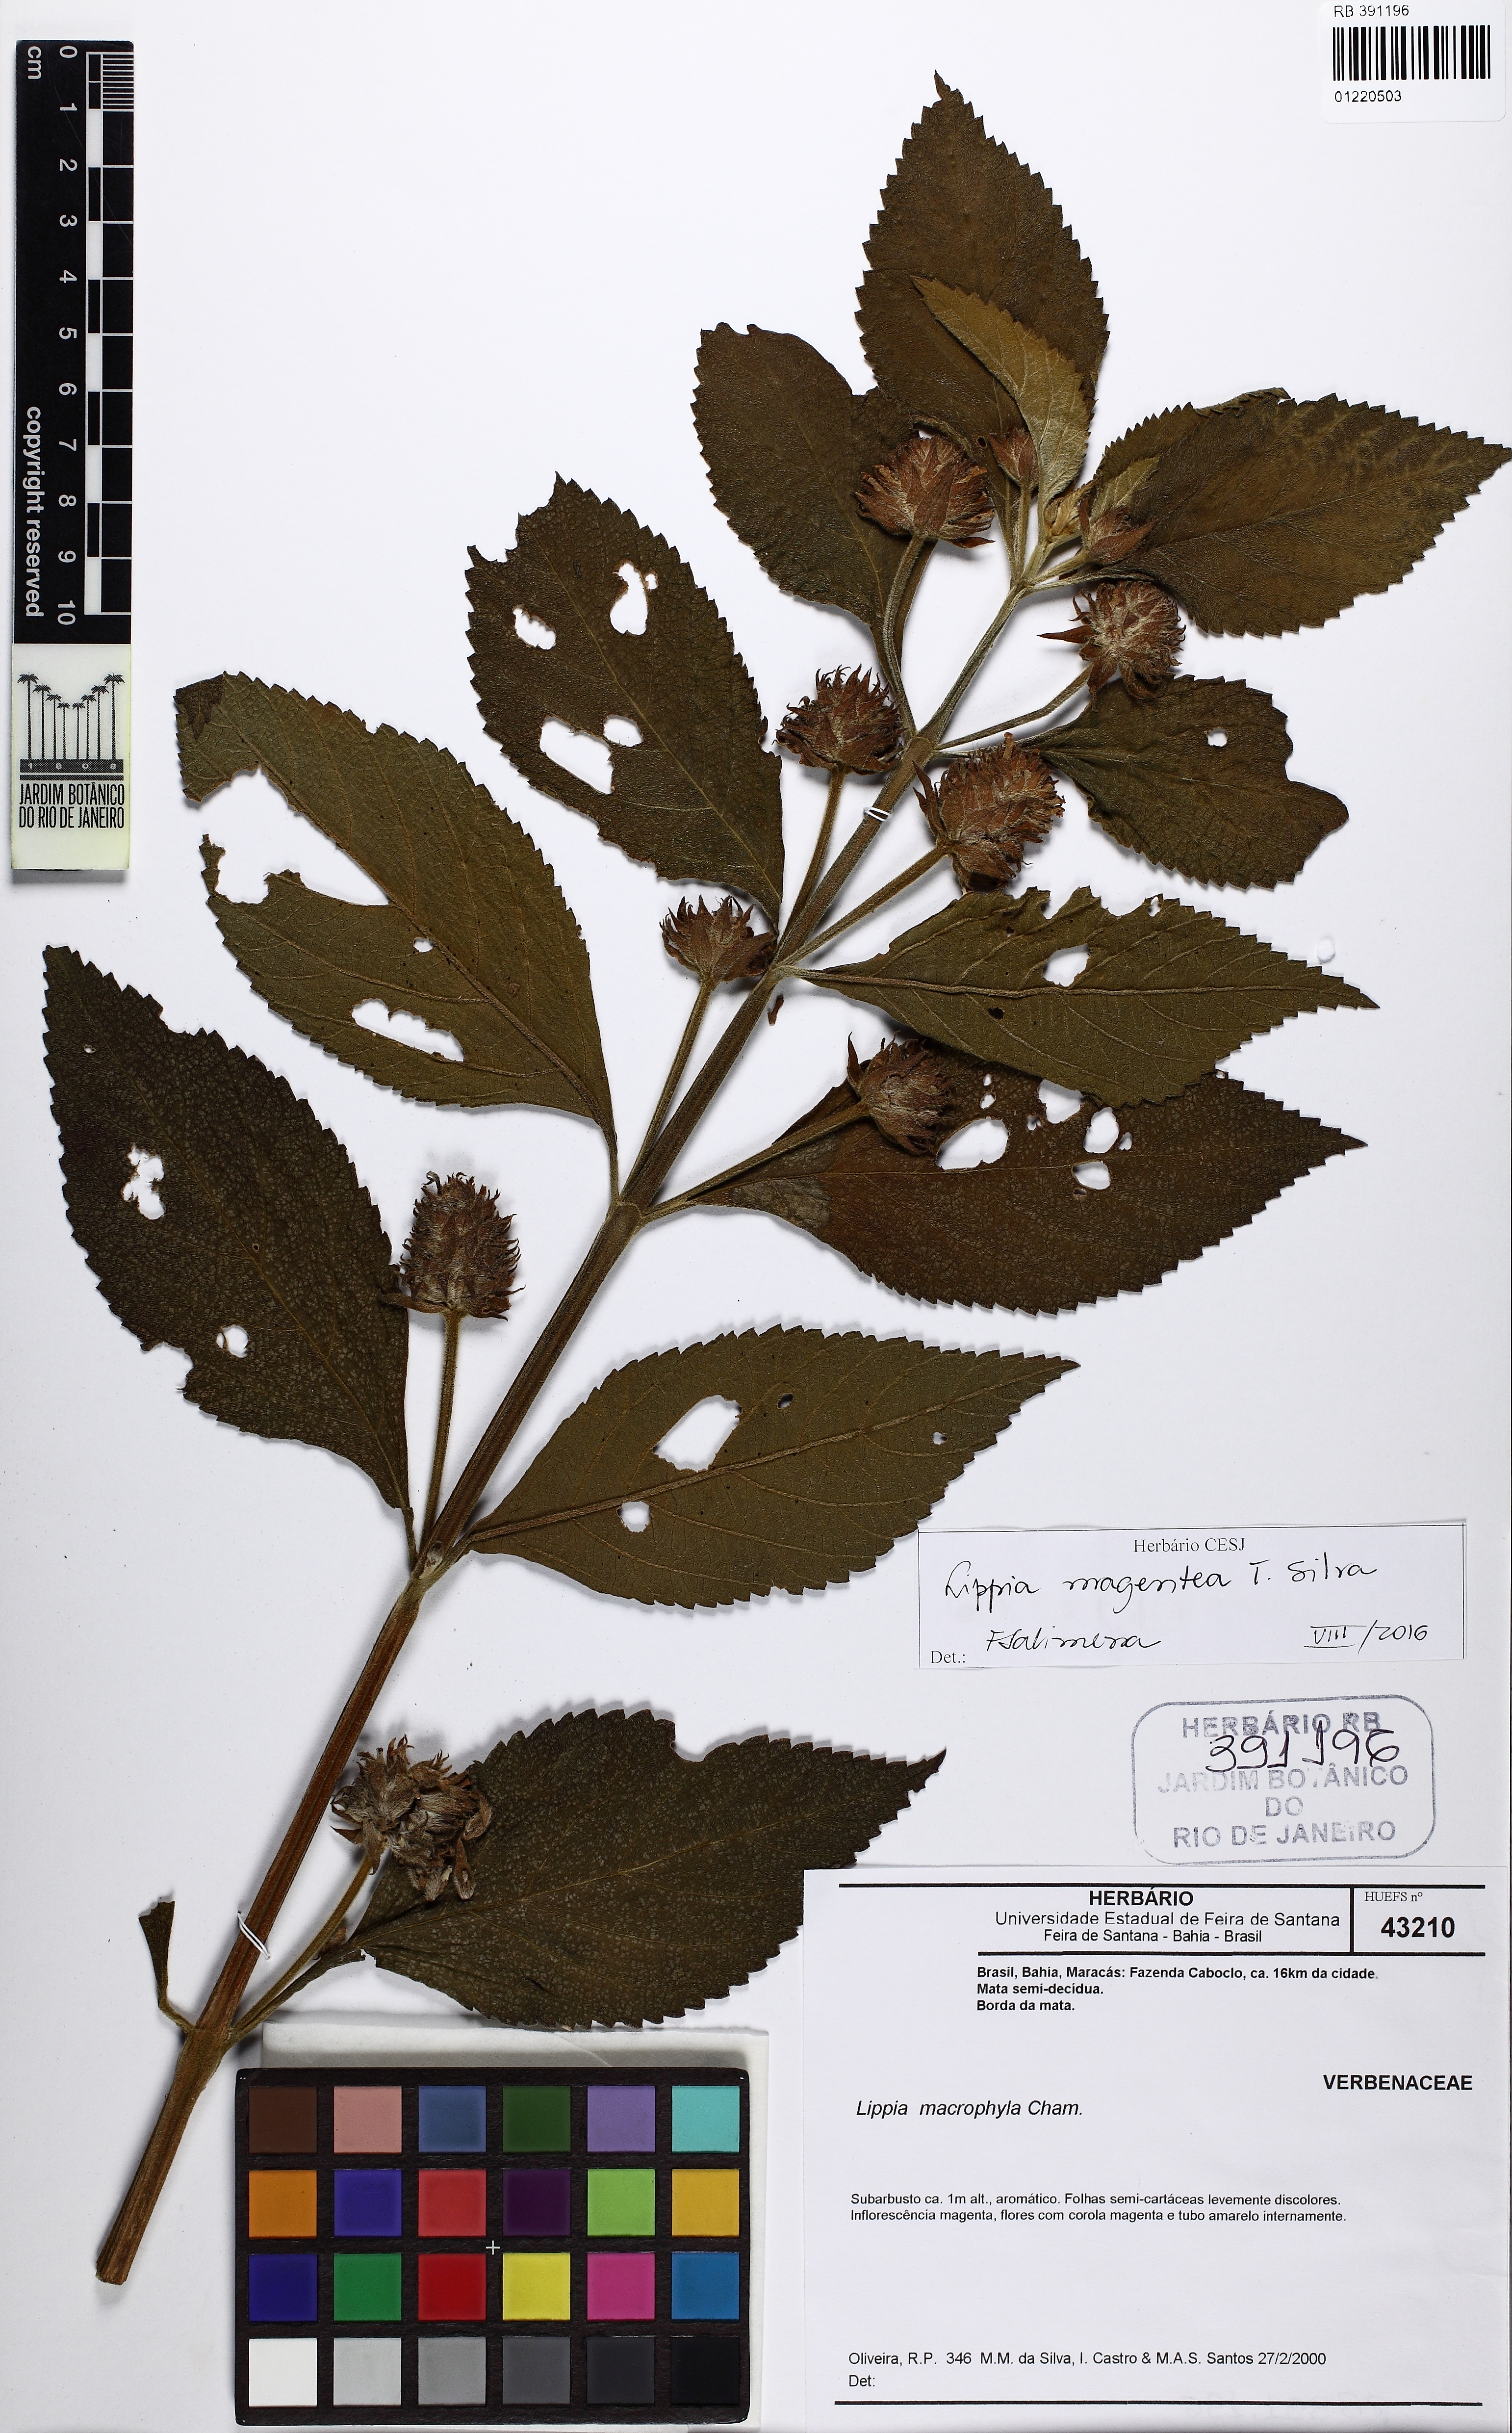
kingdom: Plantae
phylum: Tracheophyta
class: Magnoliopsida
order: Lamiales
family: Verbenaceae
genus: Lippia
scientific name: Lippia magentea
